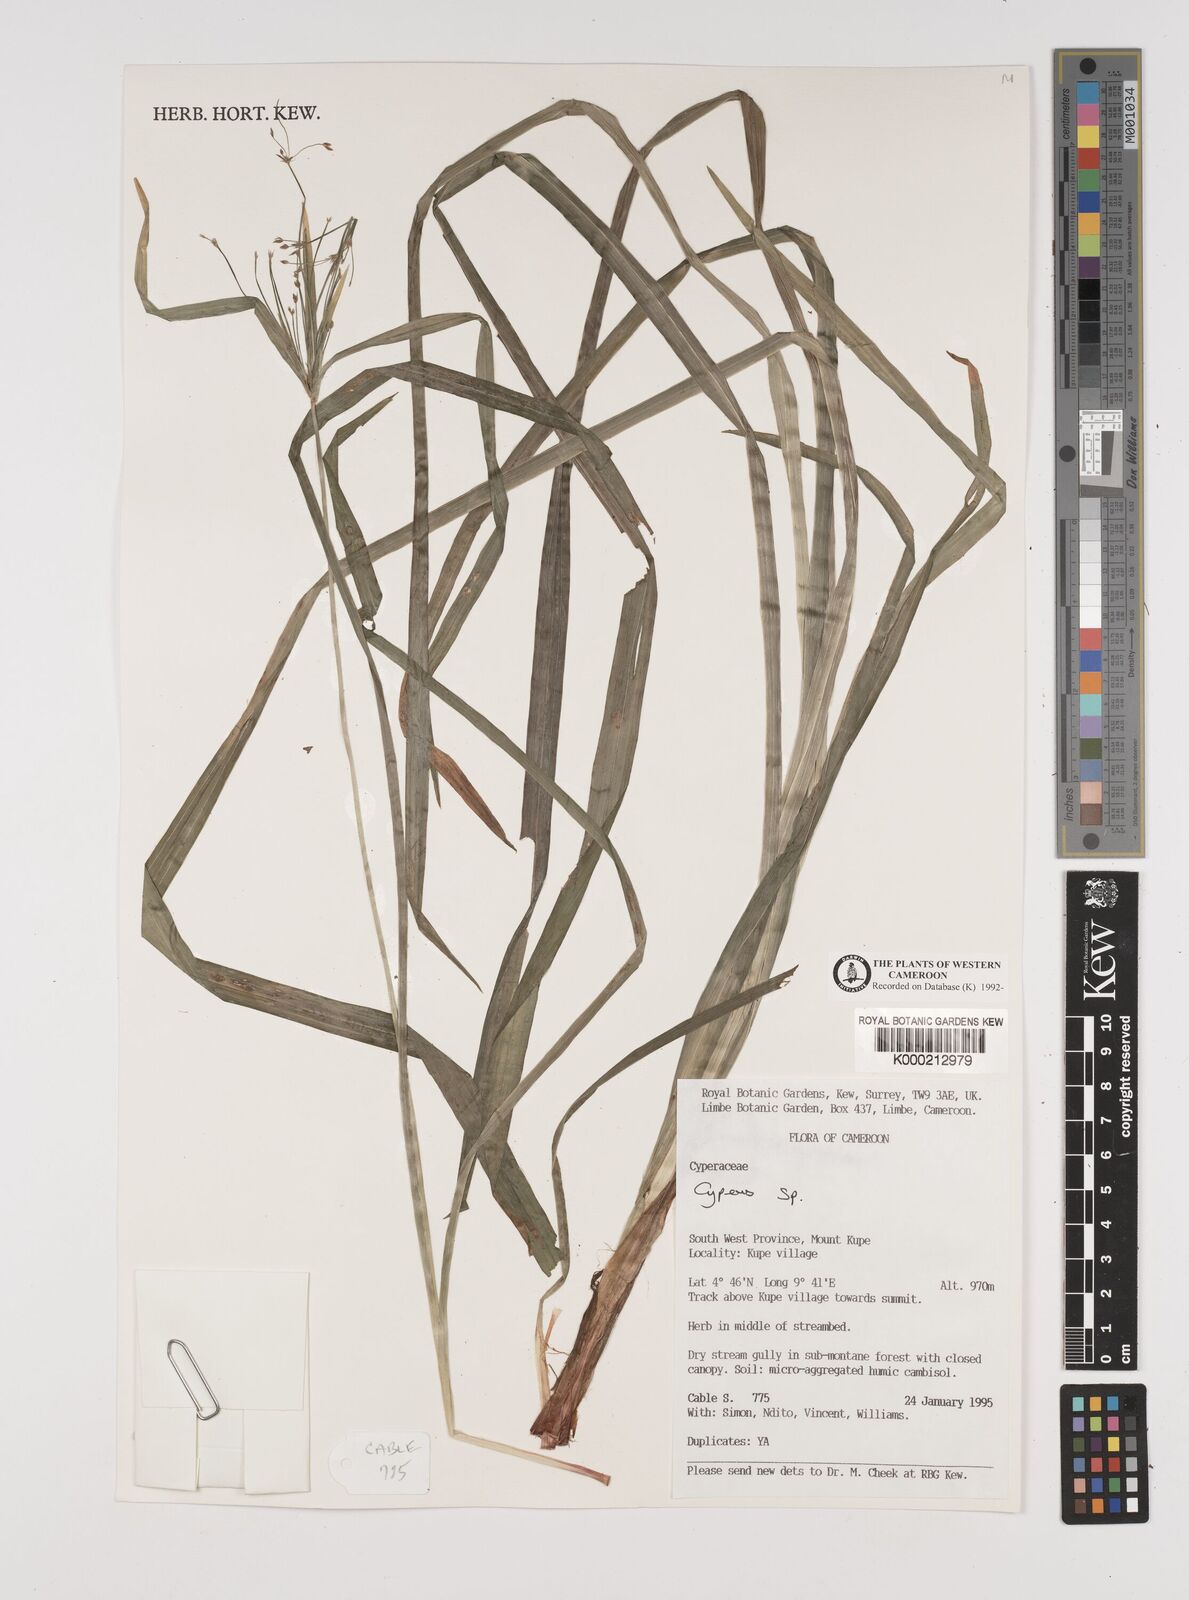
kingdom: Plantae
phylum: Tracheophyta
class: Liliopsida
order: Poales
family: Cyperaceae
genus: Cyperus
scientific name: Cyperus
